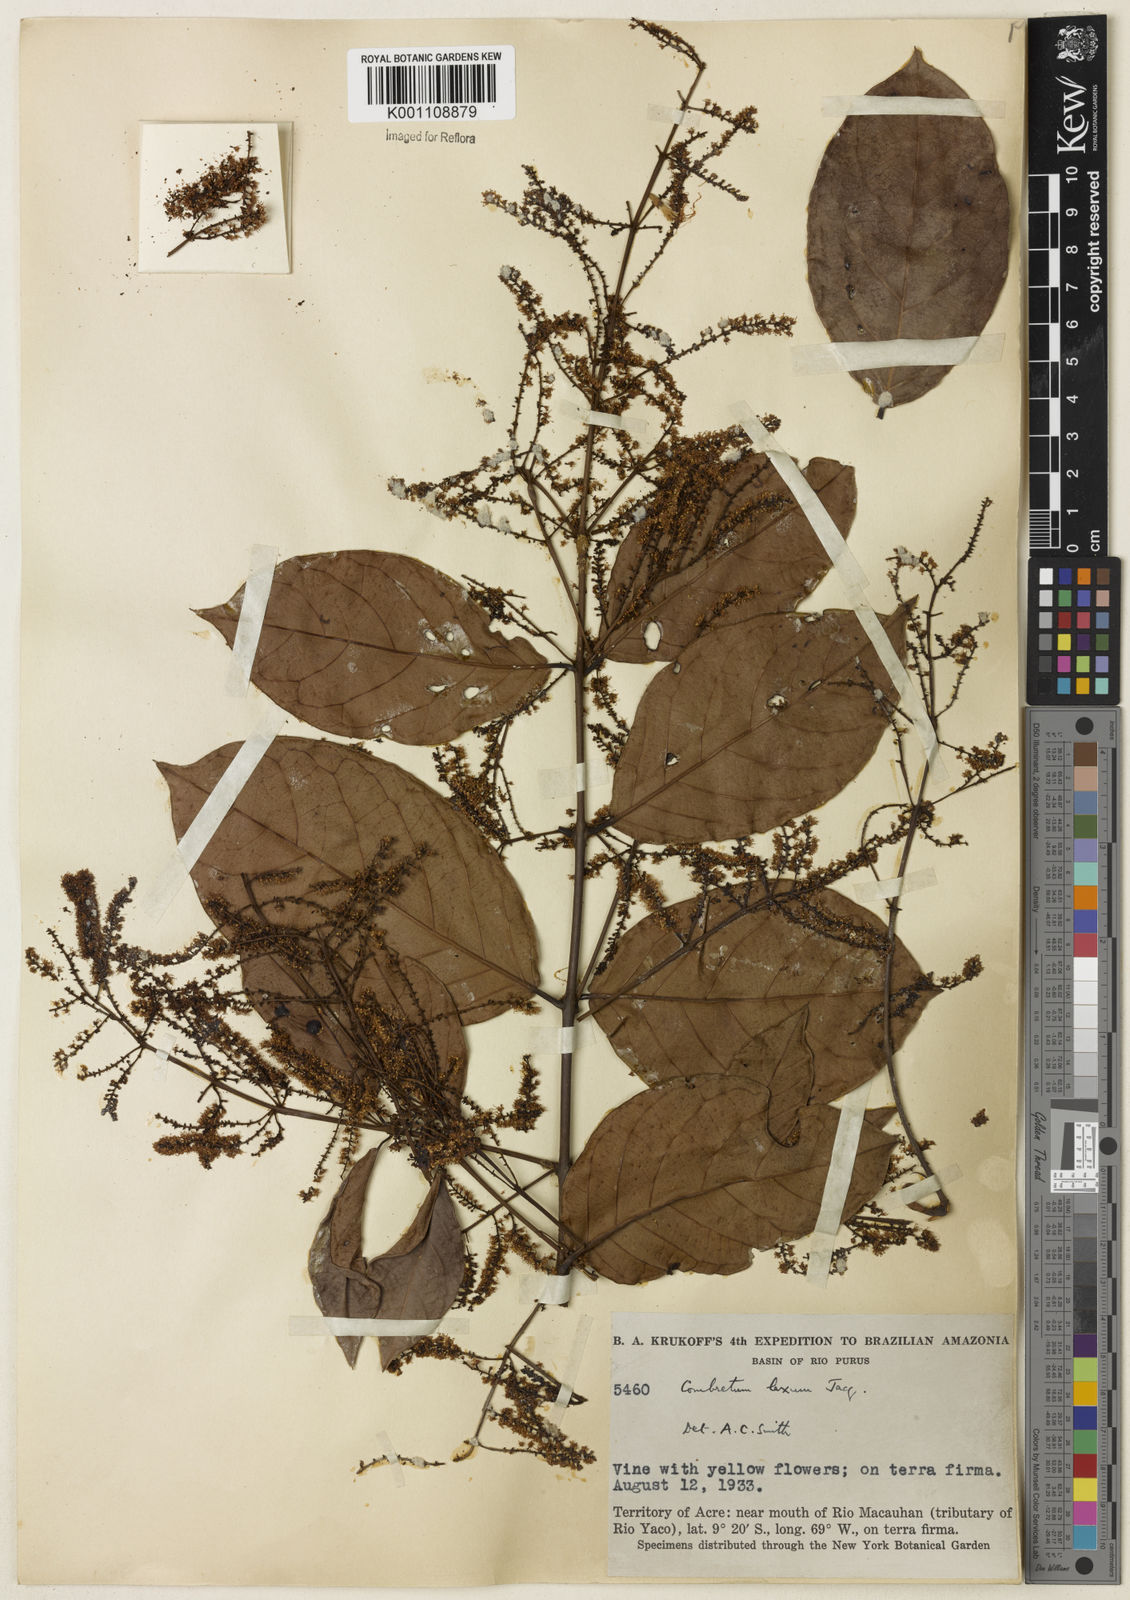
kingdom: Plantae
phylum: Tracheophyta
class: Magnoliopsida
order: Myrtales
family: Combretaceae
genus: Combretum
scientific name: Combretum laxum
